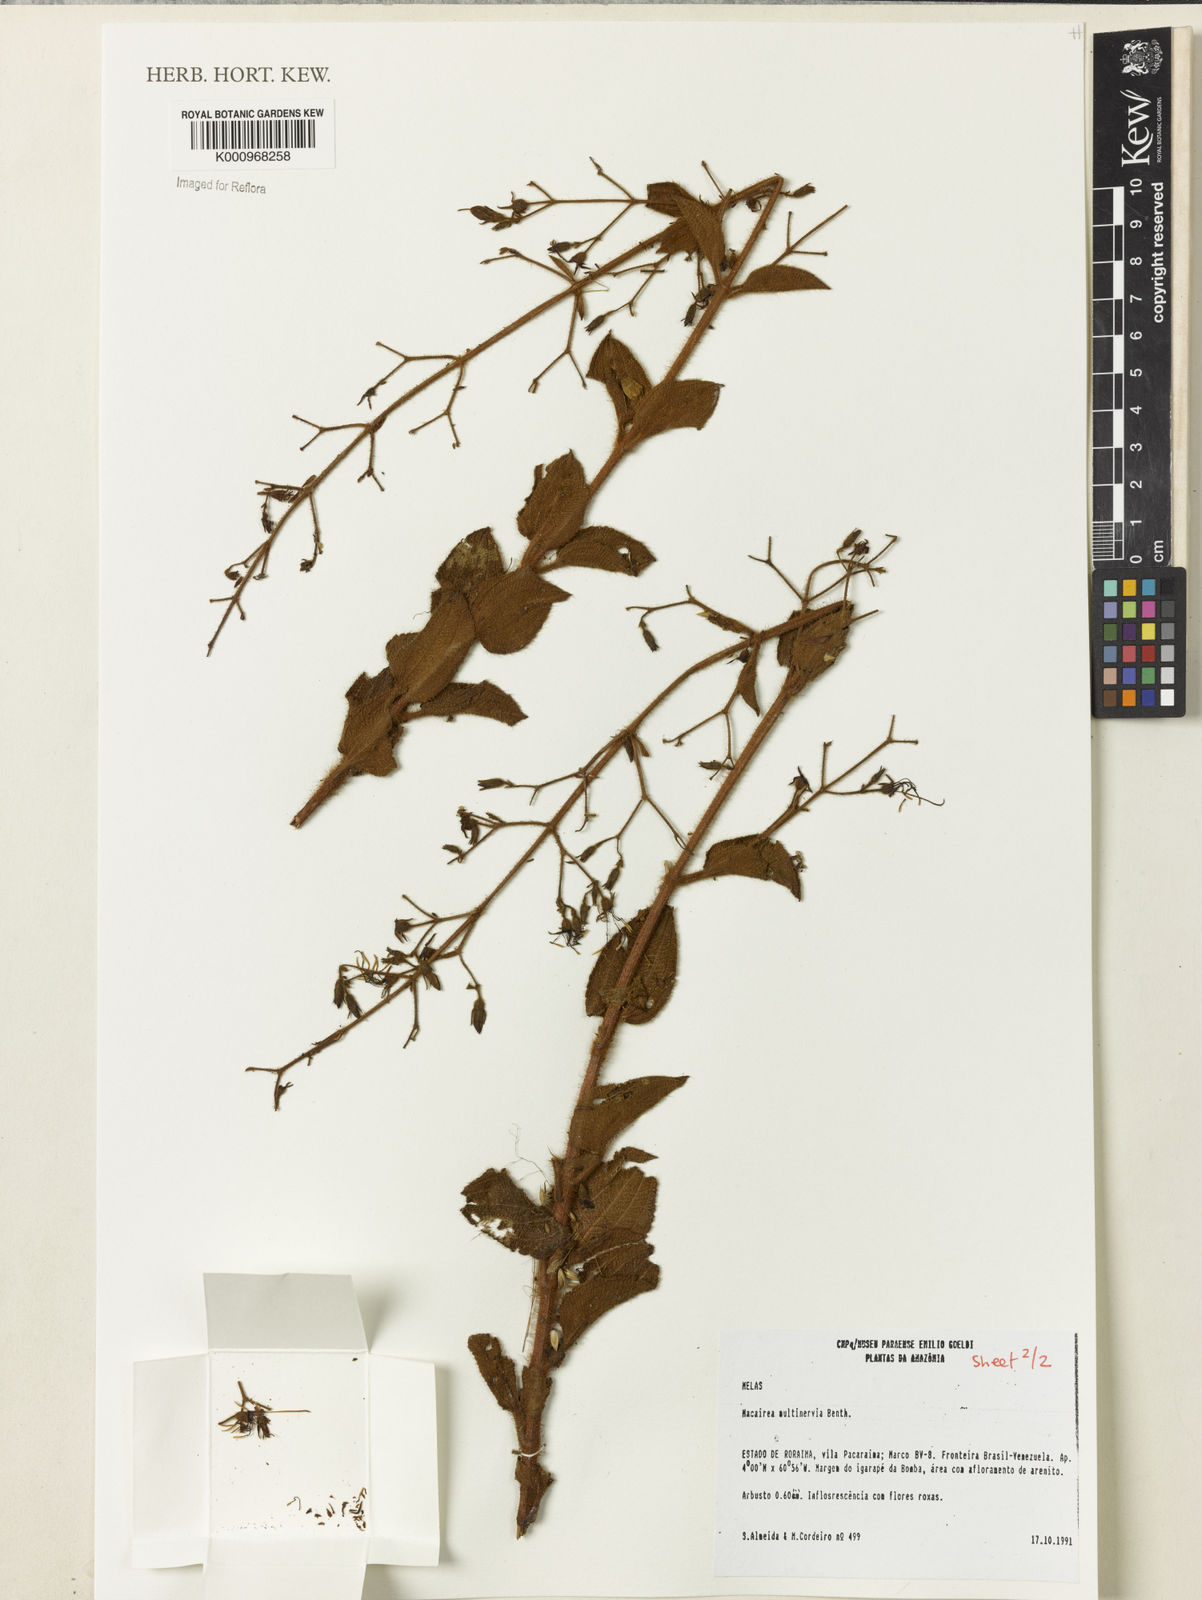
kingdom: Plantae
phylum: Tracheophyta
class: Magnoliopsida
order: Myrtales
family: Melastomataceae
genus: Macairea
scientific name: Macairea multinervia
